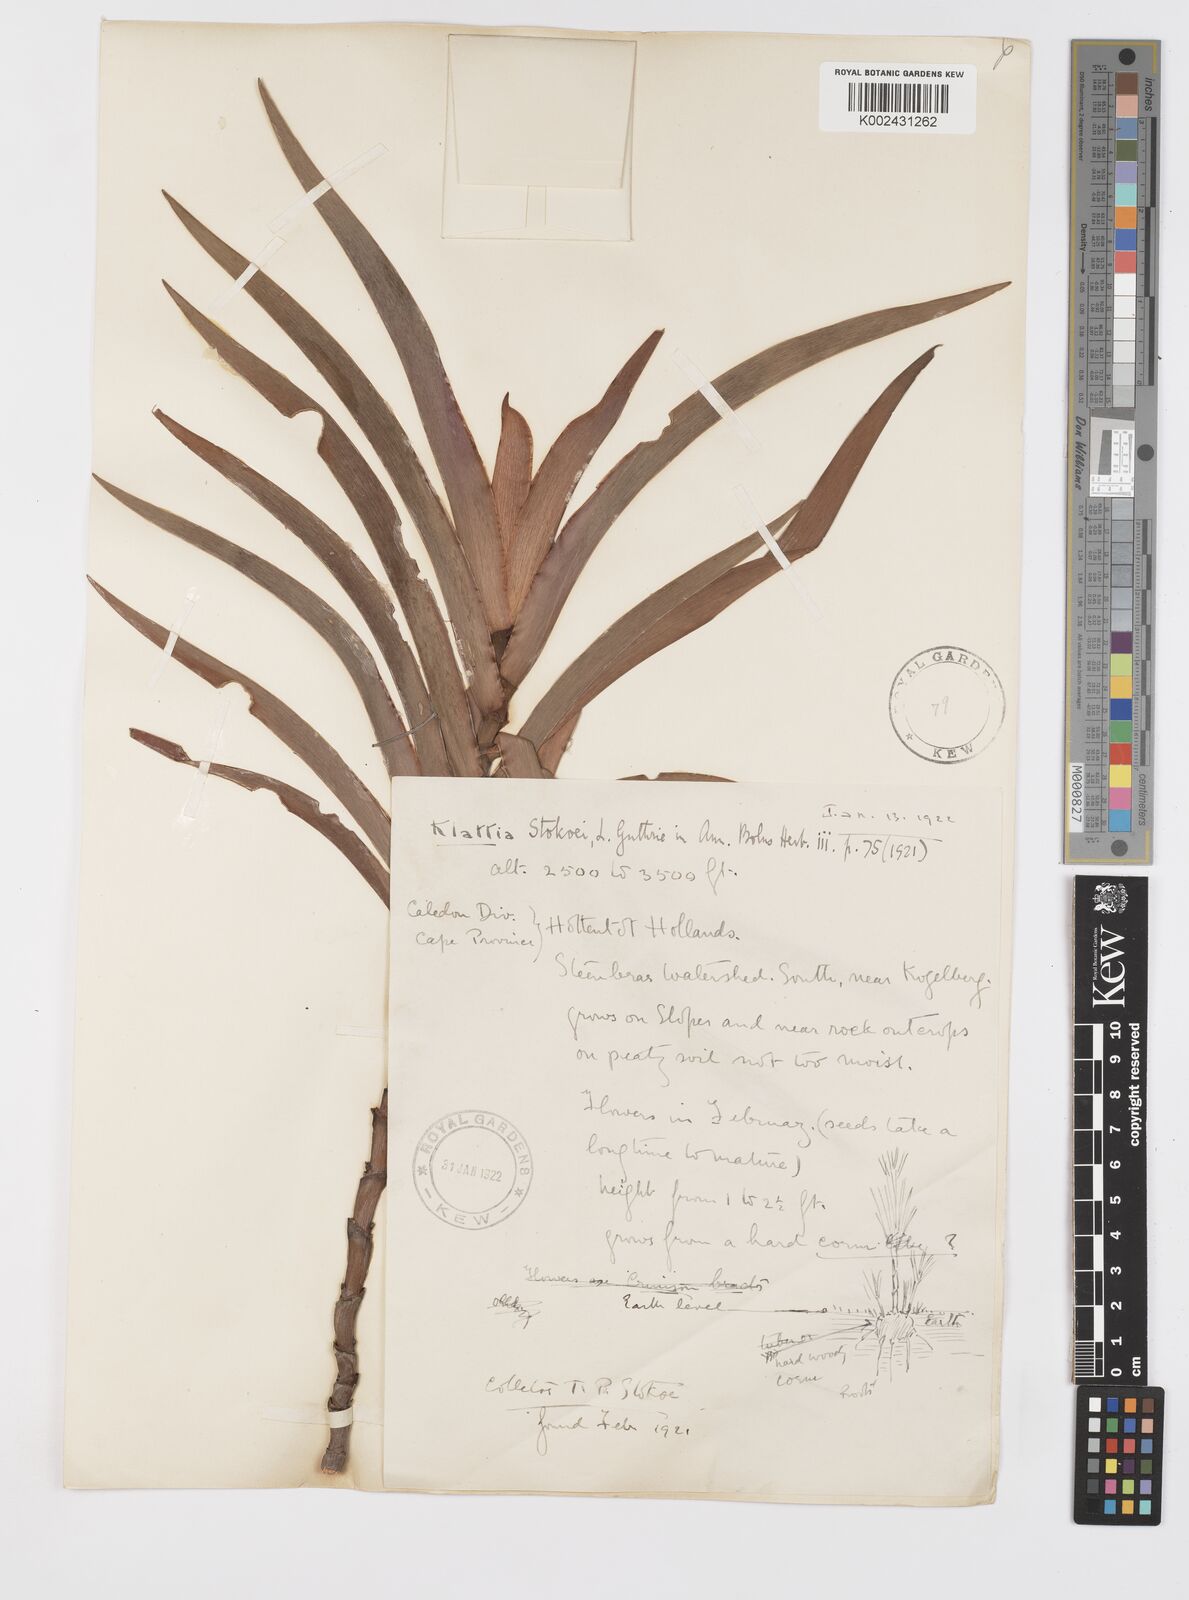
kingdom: Plantae
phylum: Tracheophyta
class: Liliopsida
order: Asparagales
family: Iridaceae
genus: Klattia
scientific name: Klattia stokoei
